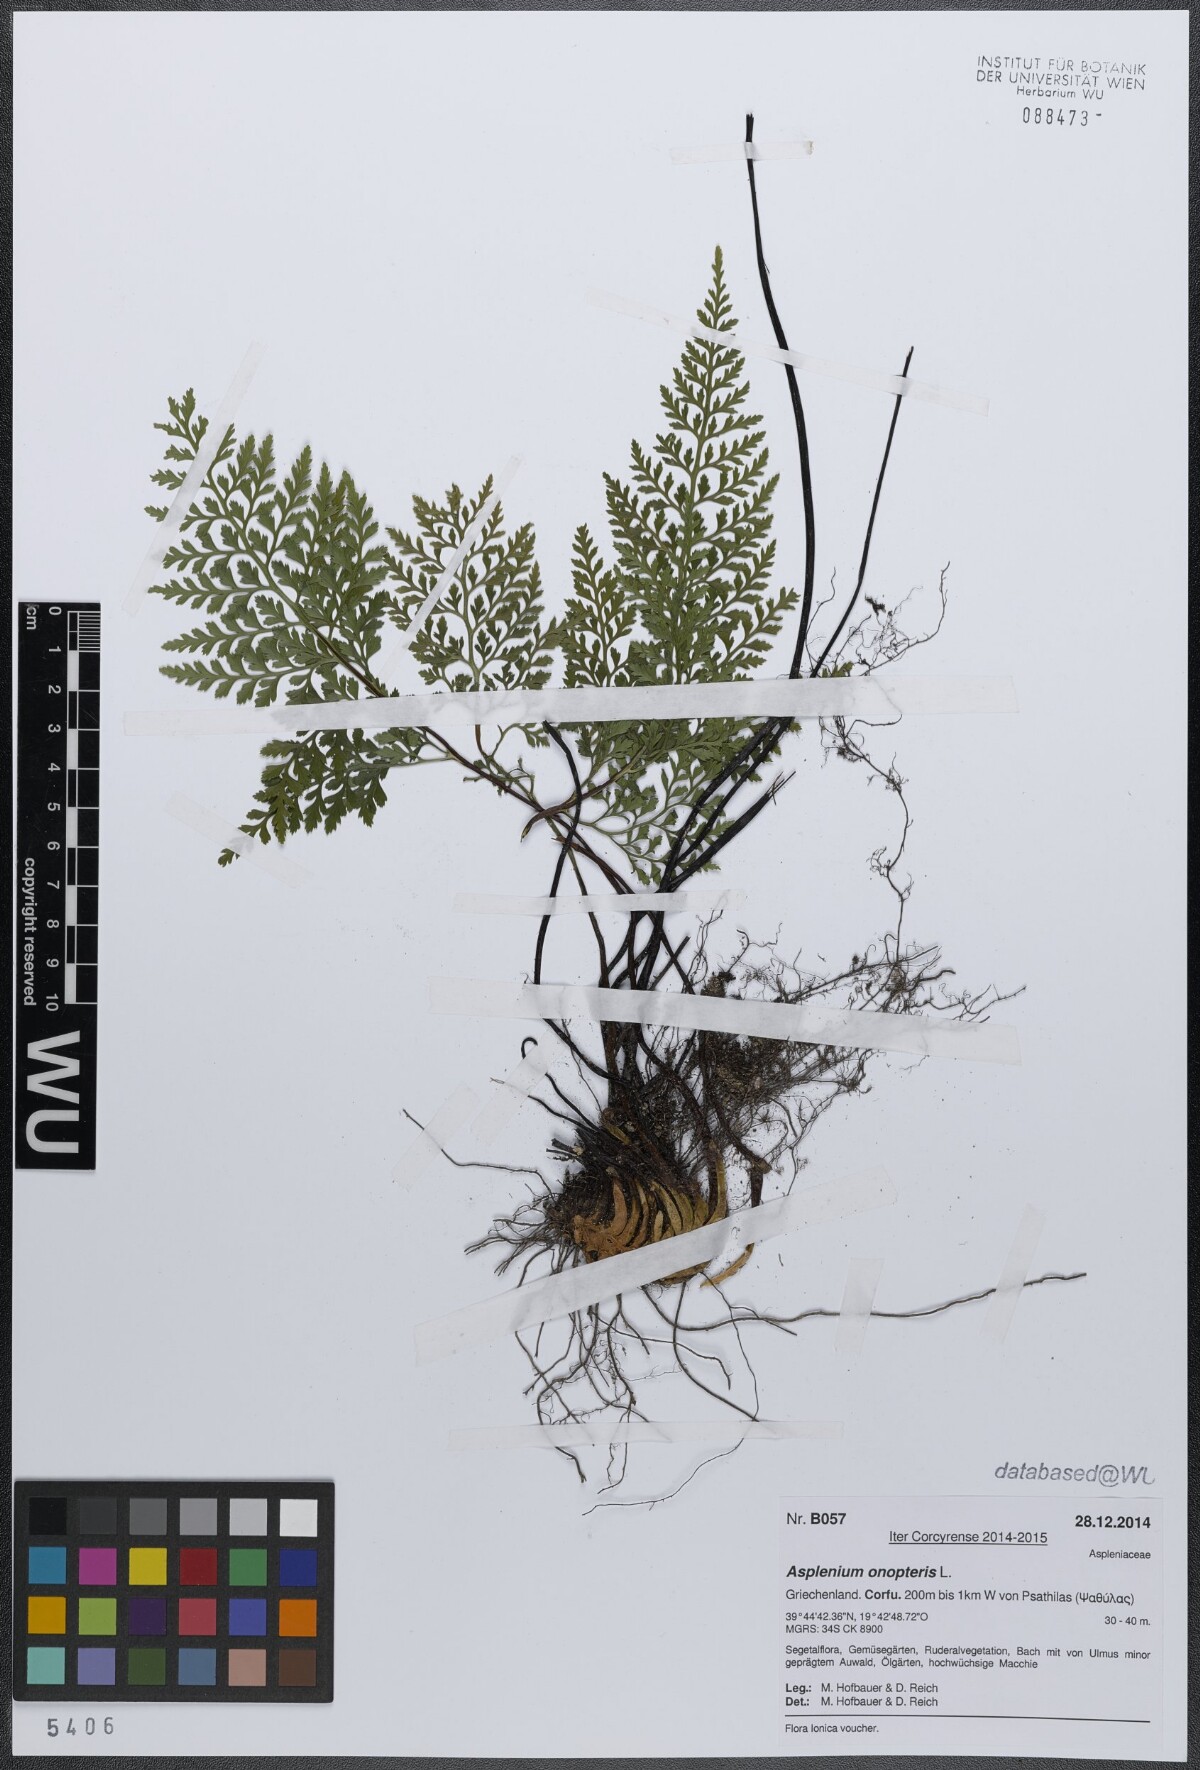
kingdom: Plantae
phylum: Tracheophyta
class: Polypodiopsida
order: Polypodiales
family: Aspleniaceae
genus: Asplenium
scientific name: Asplenium onopteris
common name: Irish spleenwort
